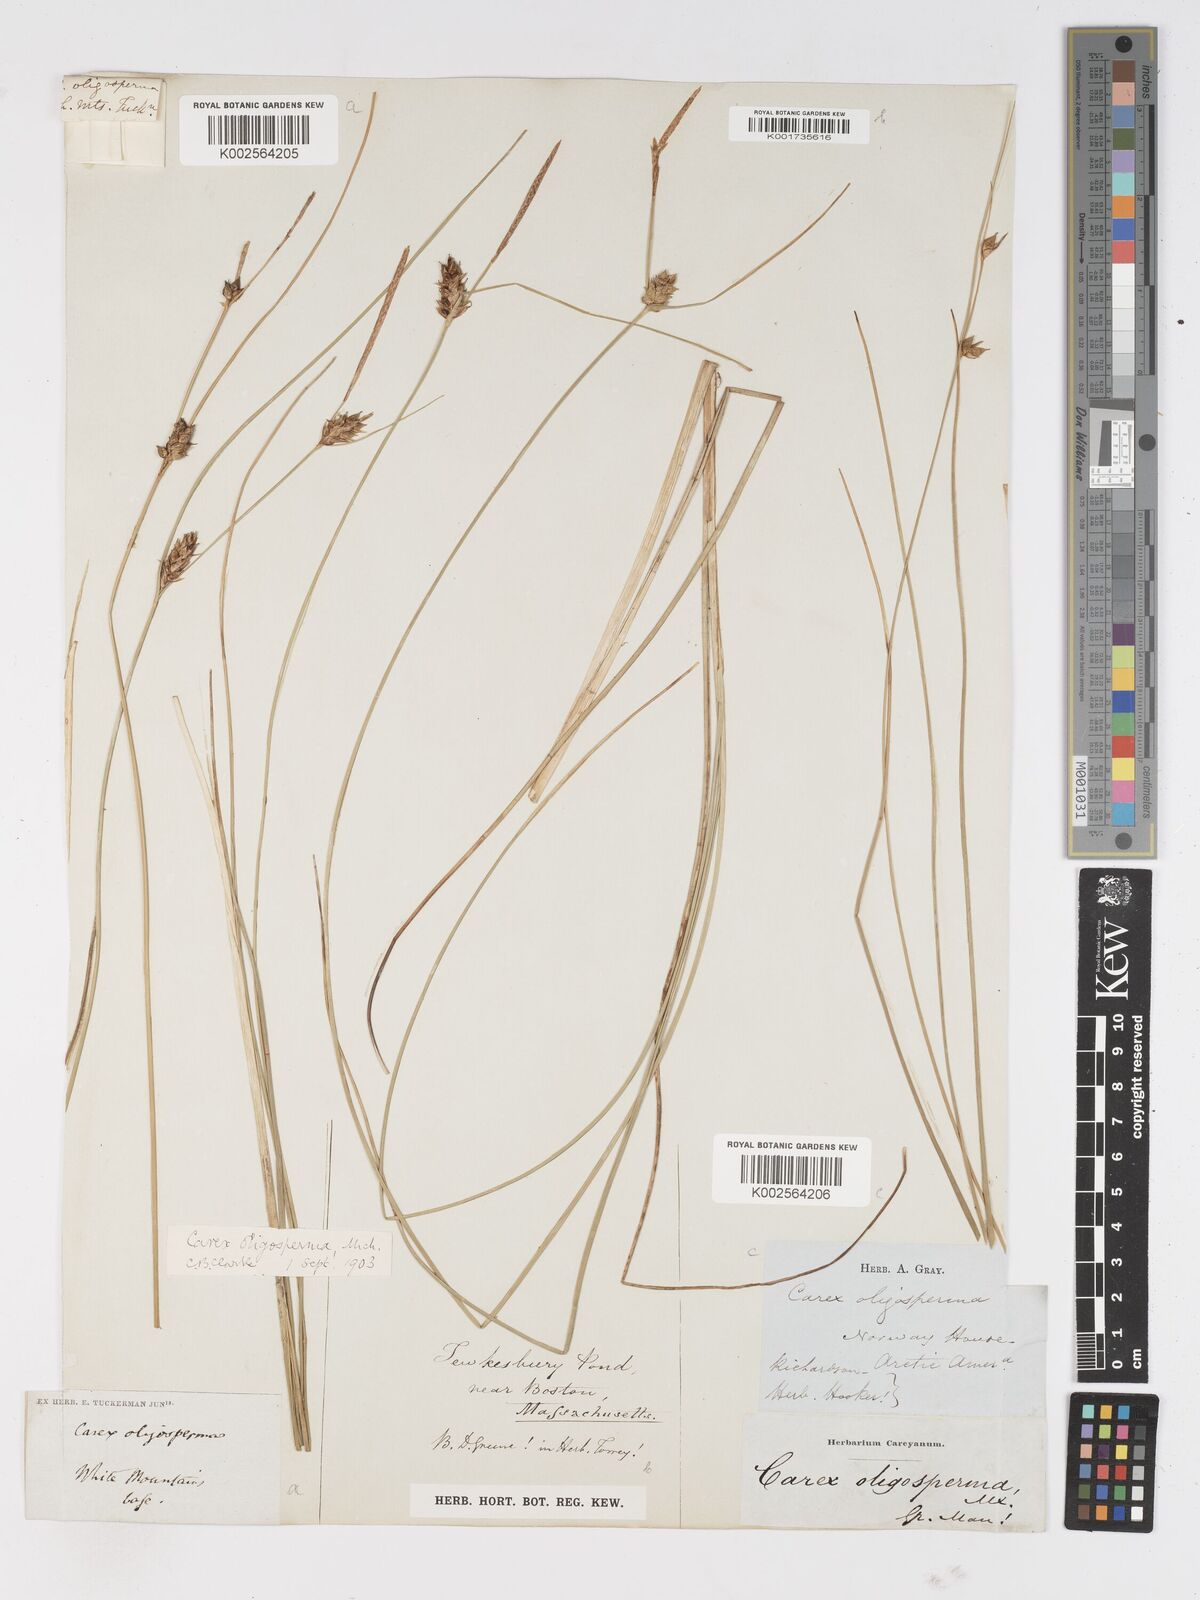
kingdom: Plantae
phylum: Tracheophyta
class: Liliopsida
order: Poales
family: Cyperaceae
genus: Carex
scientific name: Carex oligosperma
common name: Few-seed sedge
